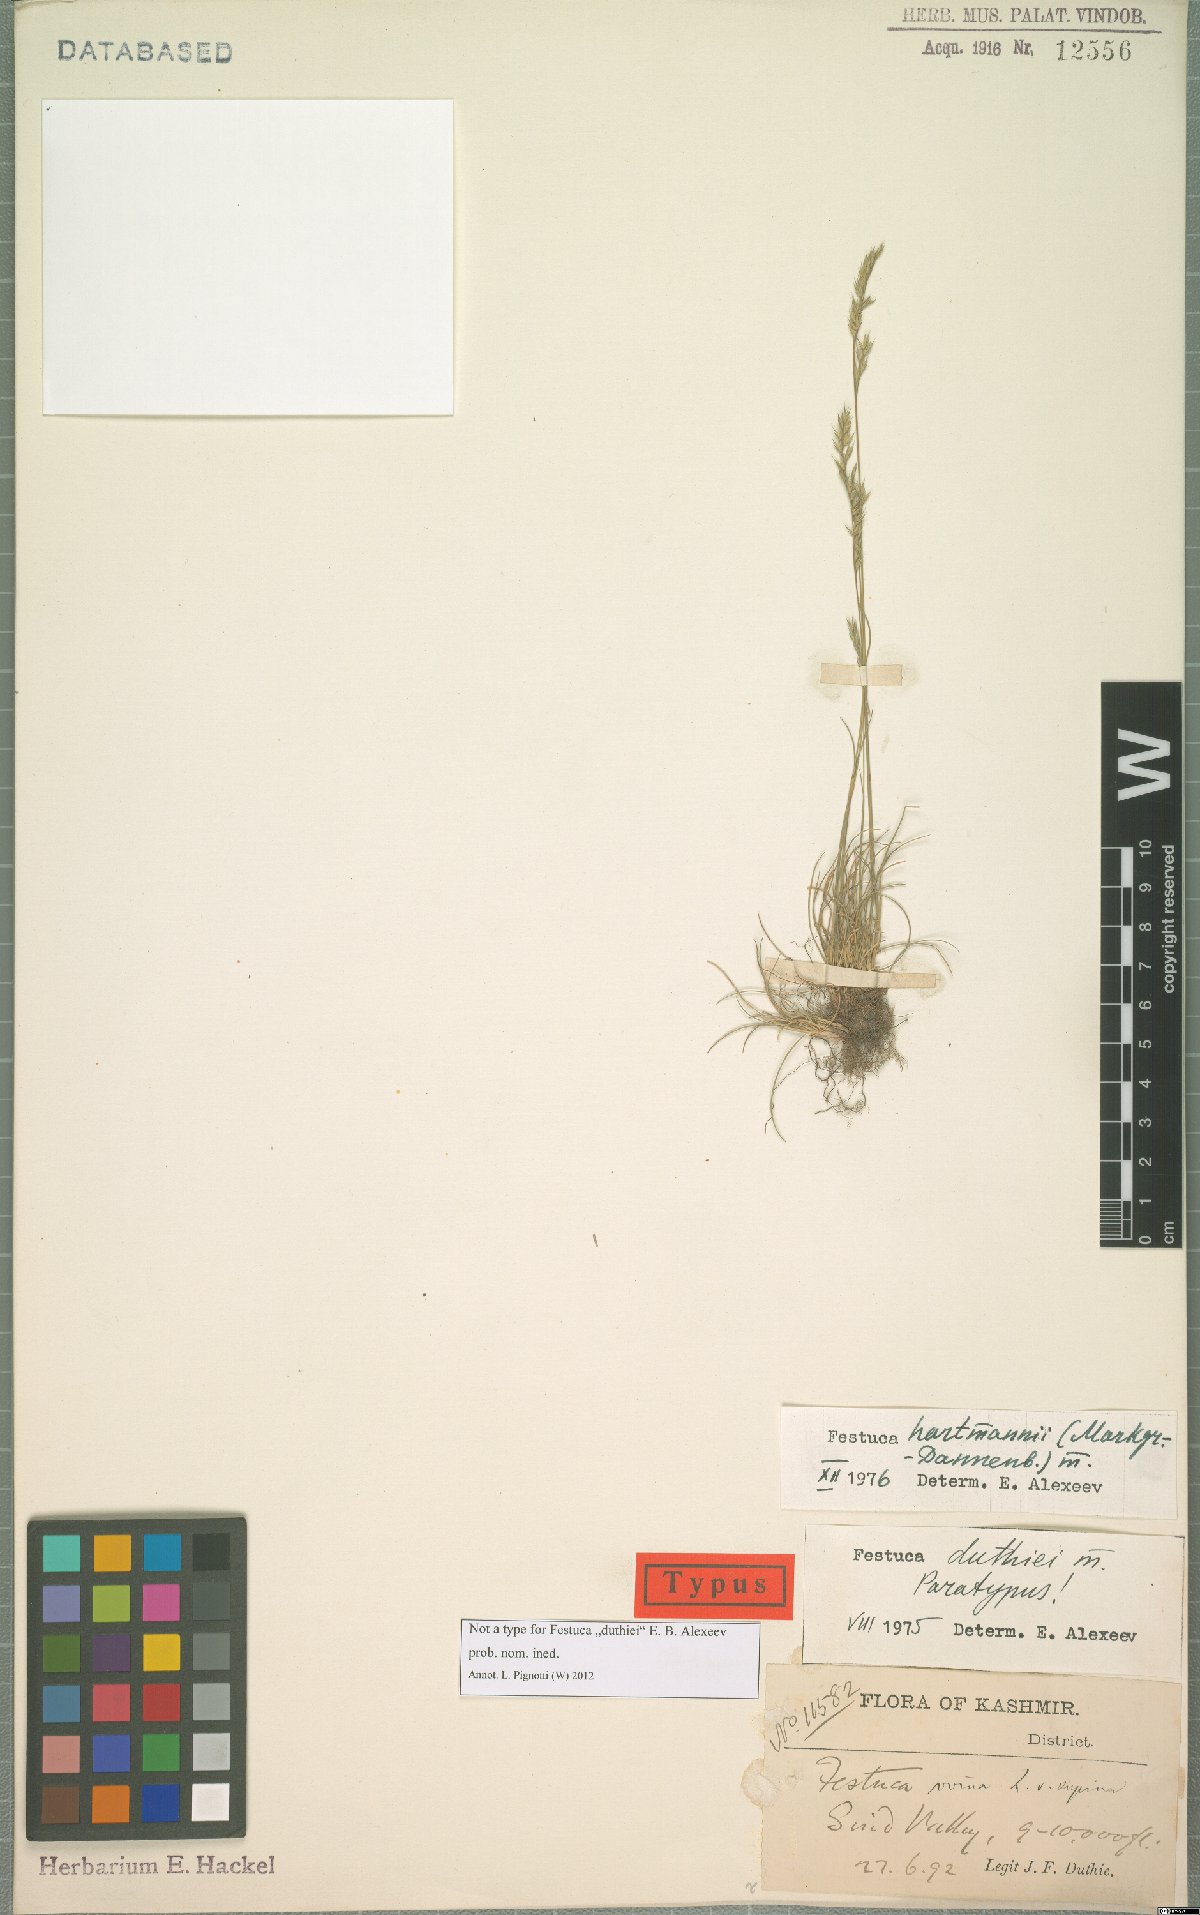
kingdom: Plantae
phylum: Tracheophyta
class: Liliopsida
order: Poales
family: Poaceae
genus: Festuca
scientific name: Festuca hartmannii
